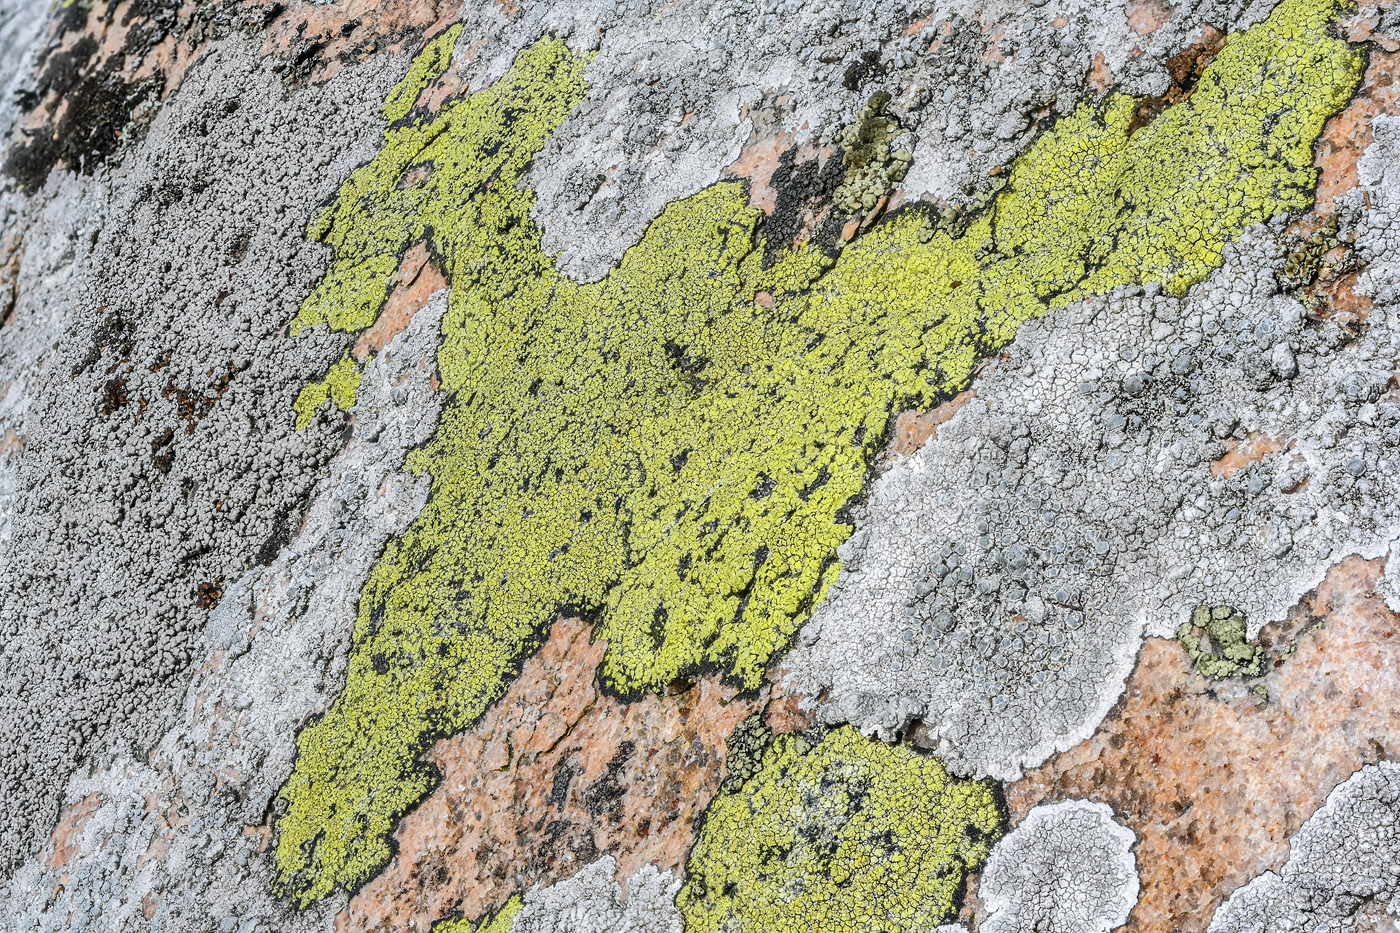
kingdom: Fungi
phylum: Ascomycota
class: Lecanoromycetes
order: Rhizocarpales
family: Rhizocarpaceae
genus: Rhizocarpon
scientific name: Rhizocarpon geographicum
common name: gulgrøn landkortlav
